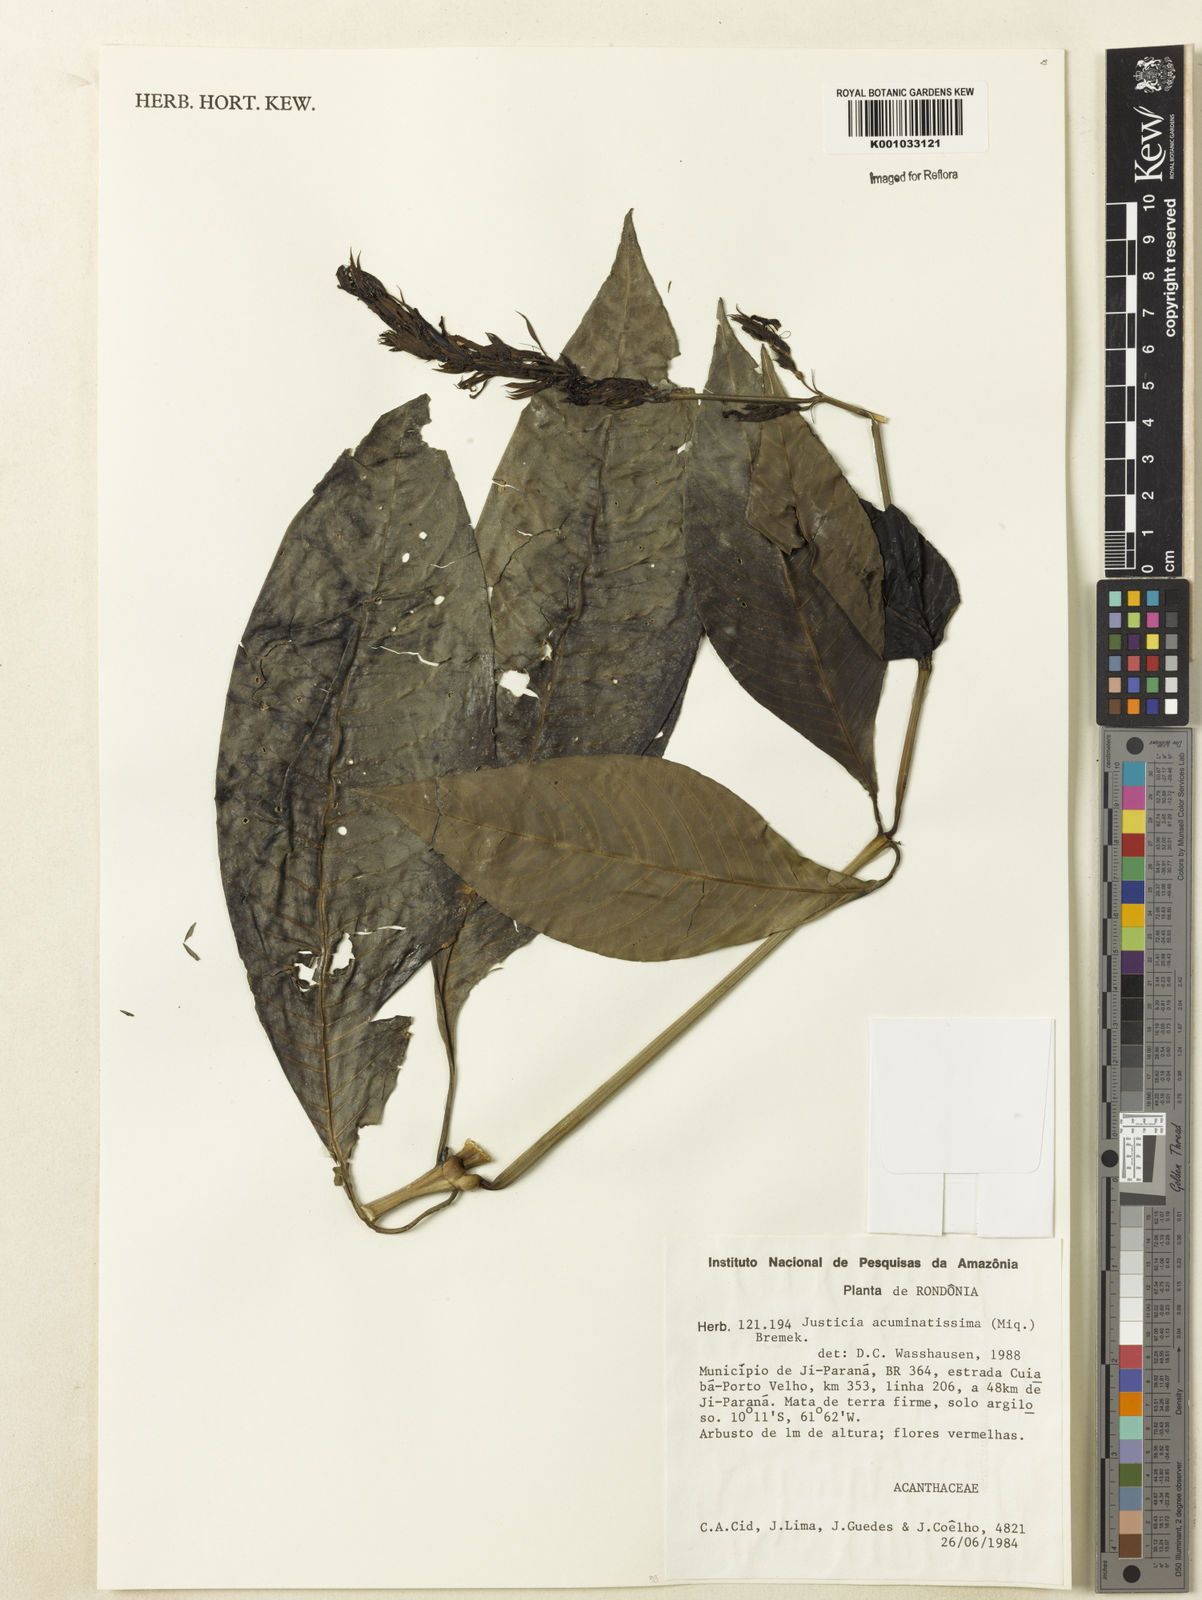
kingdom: Plantae
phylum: Tracheophyta
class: Magnoliopsida
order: Lamiales
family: Acanthaceae
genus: Dianthera
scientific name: Dianthera calycina
